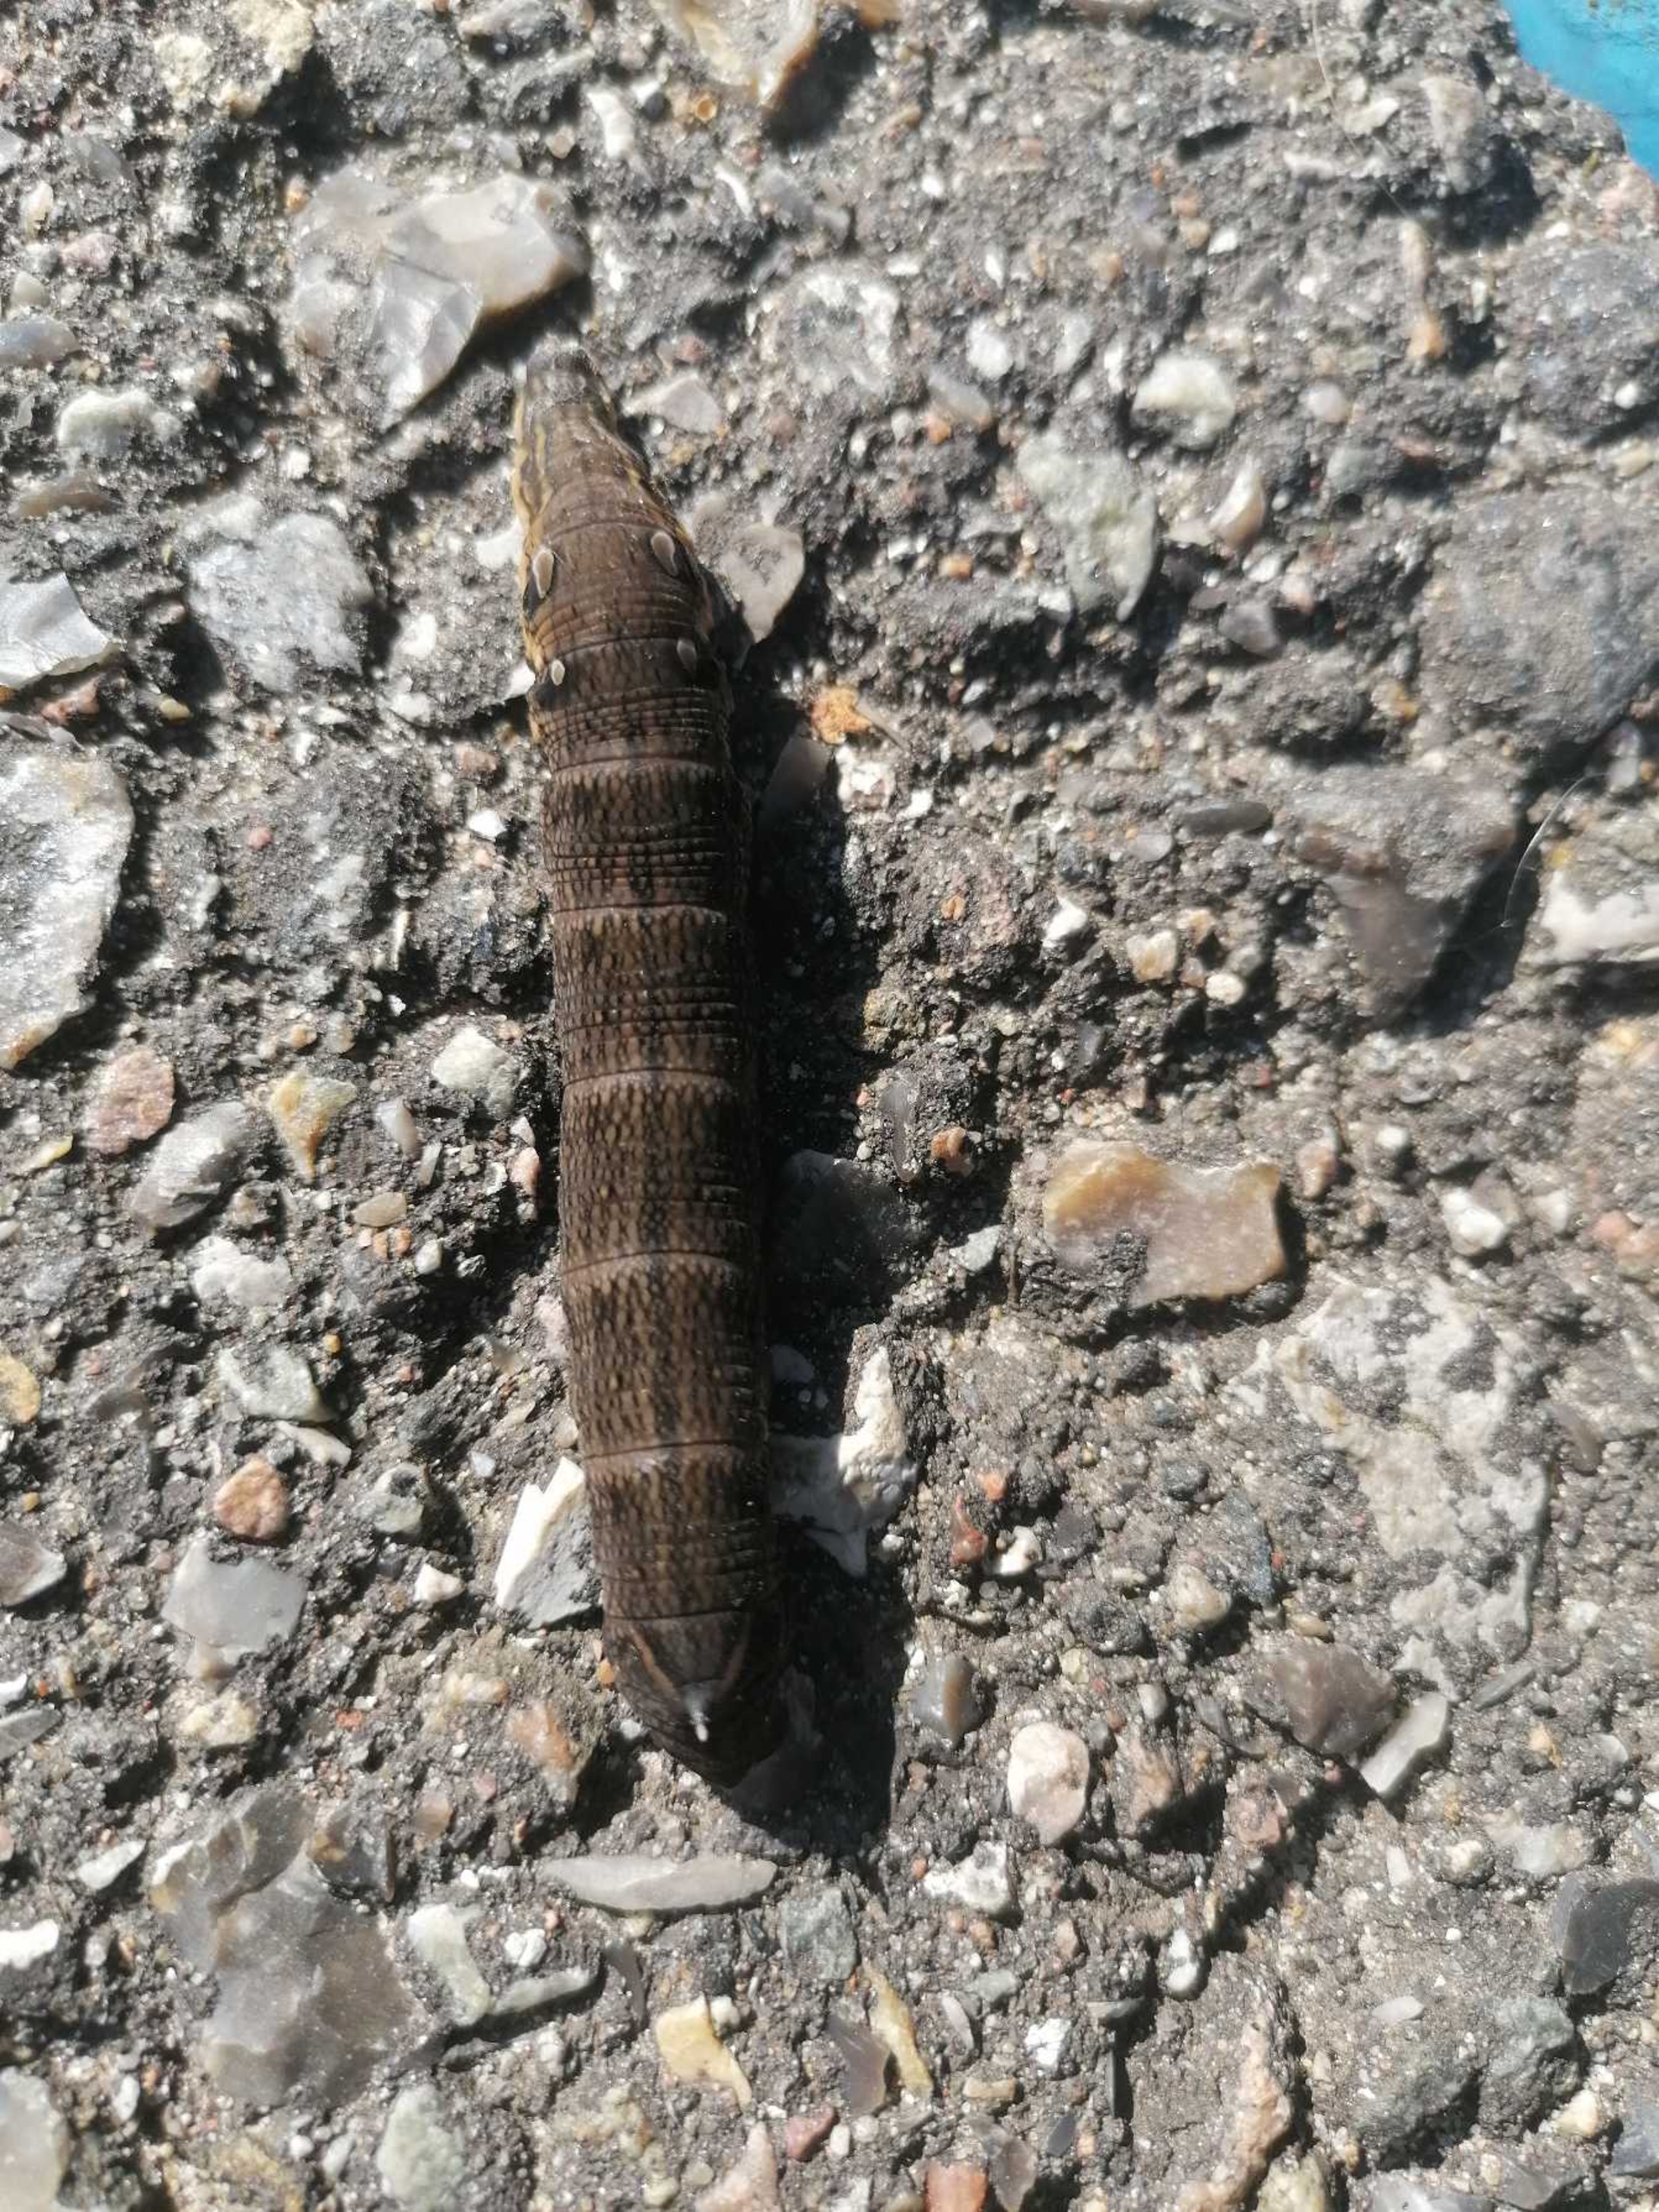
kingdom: Animalia
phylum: Arthropoda
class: Insecta
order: Lepidoptera
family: Sphingidae
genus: Deilephila
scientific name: Deilephila elpenor
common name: Dueurtsværmer
